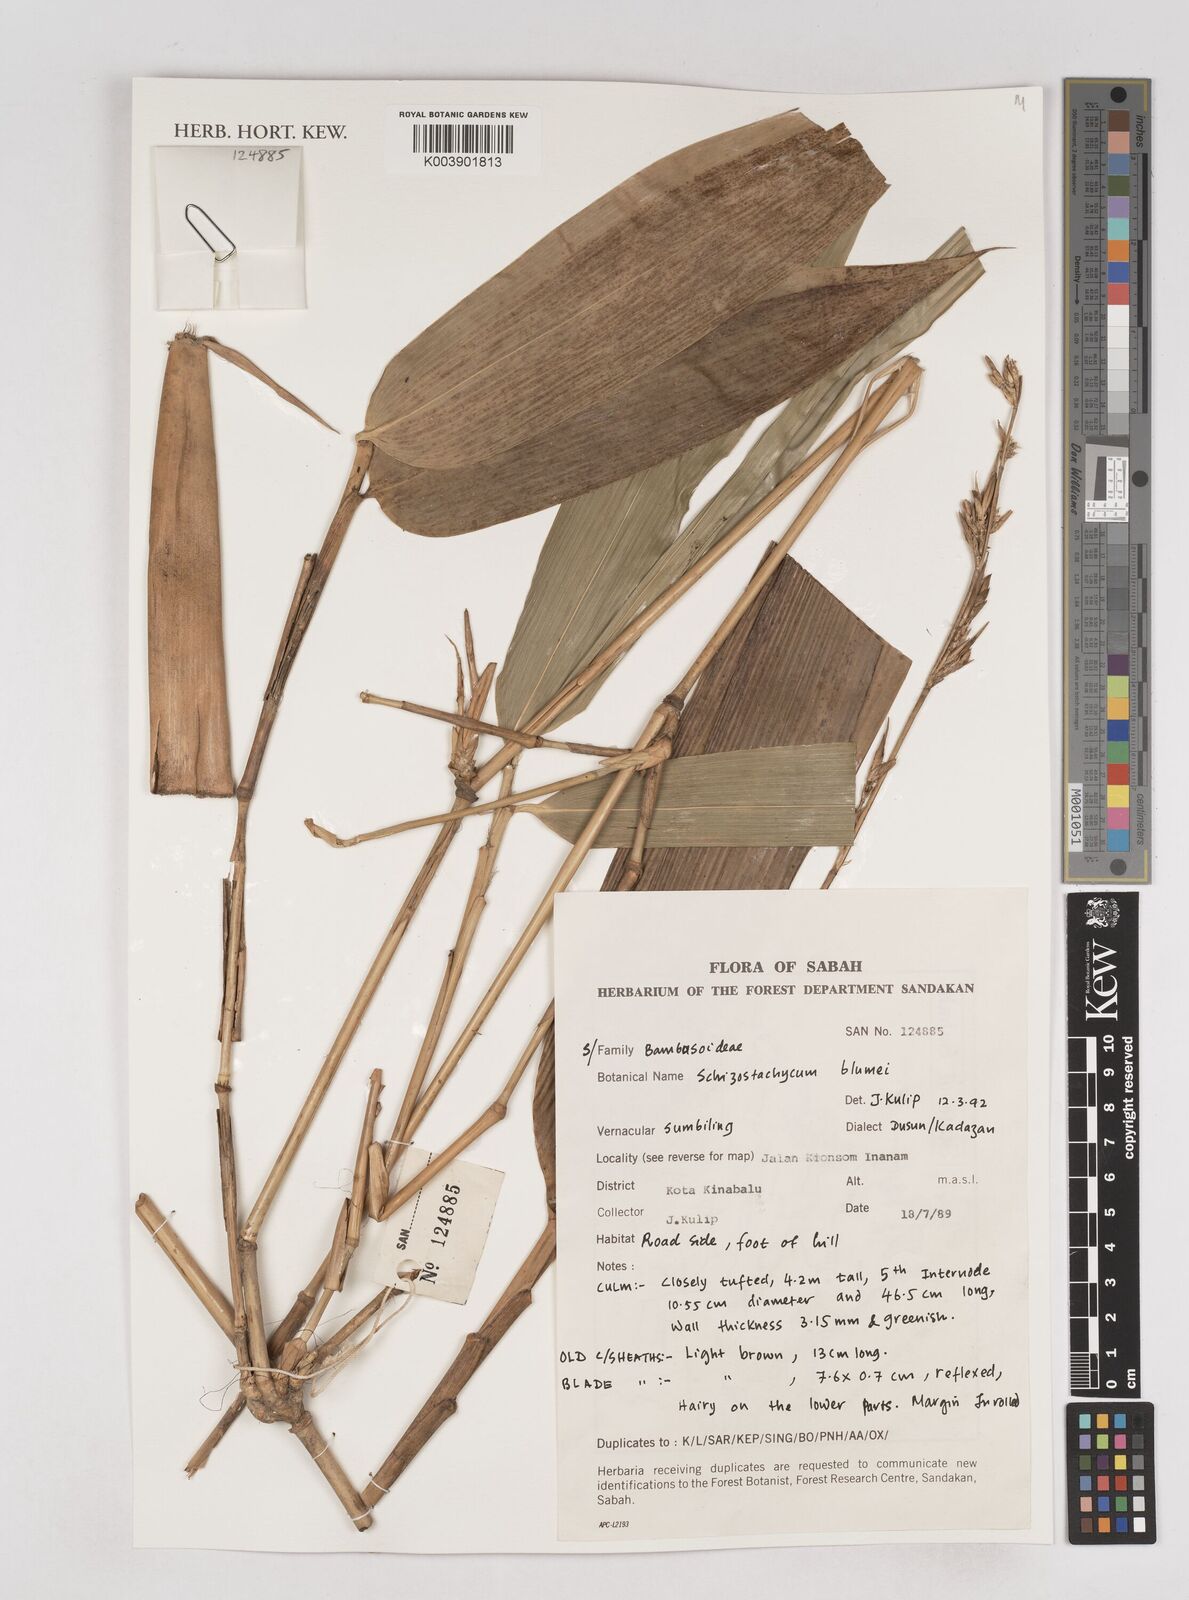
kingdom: Plantae
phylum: Tracheophyta
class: Liliopsida
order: Poales
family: Poaceae
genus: Schizostachyum
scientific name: Schizostachyum blumei
